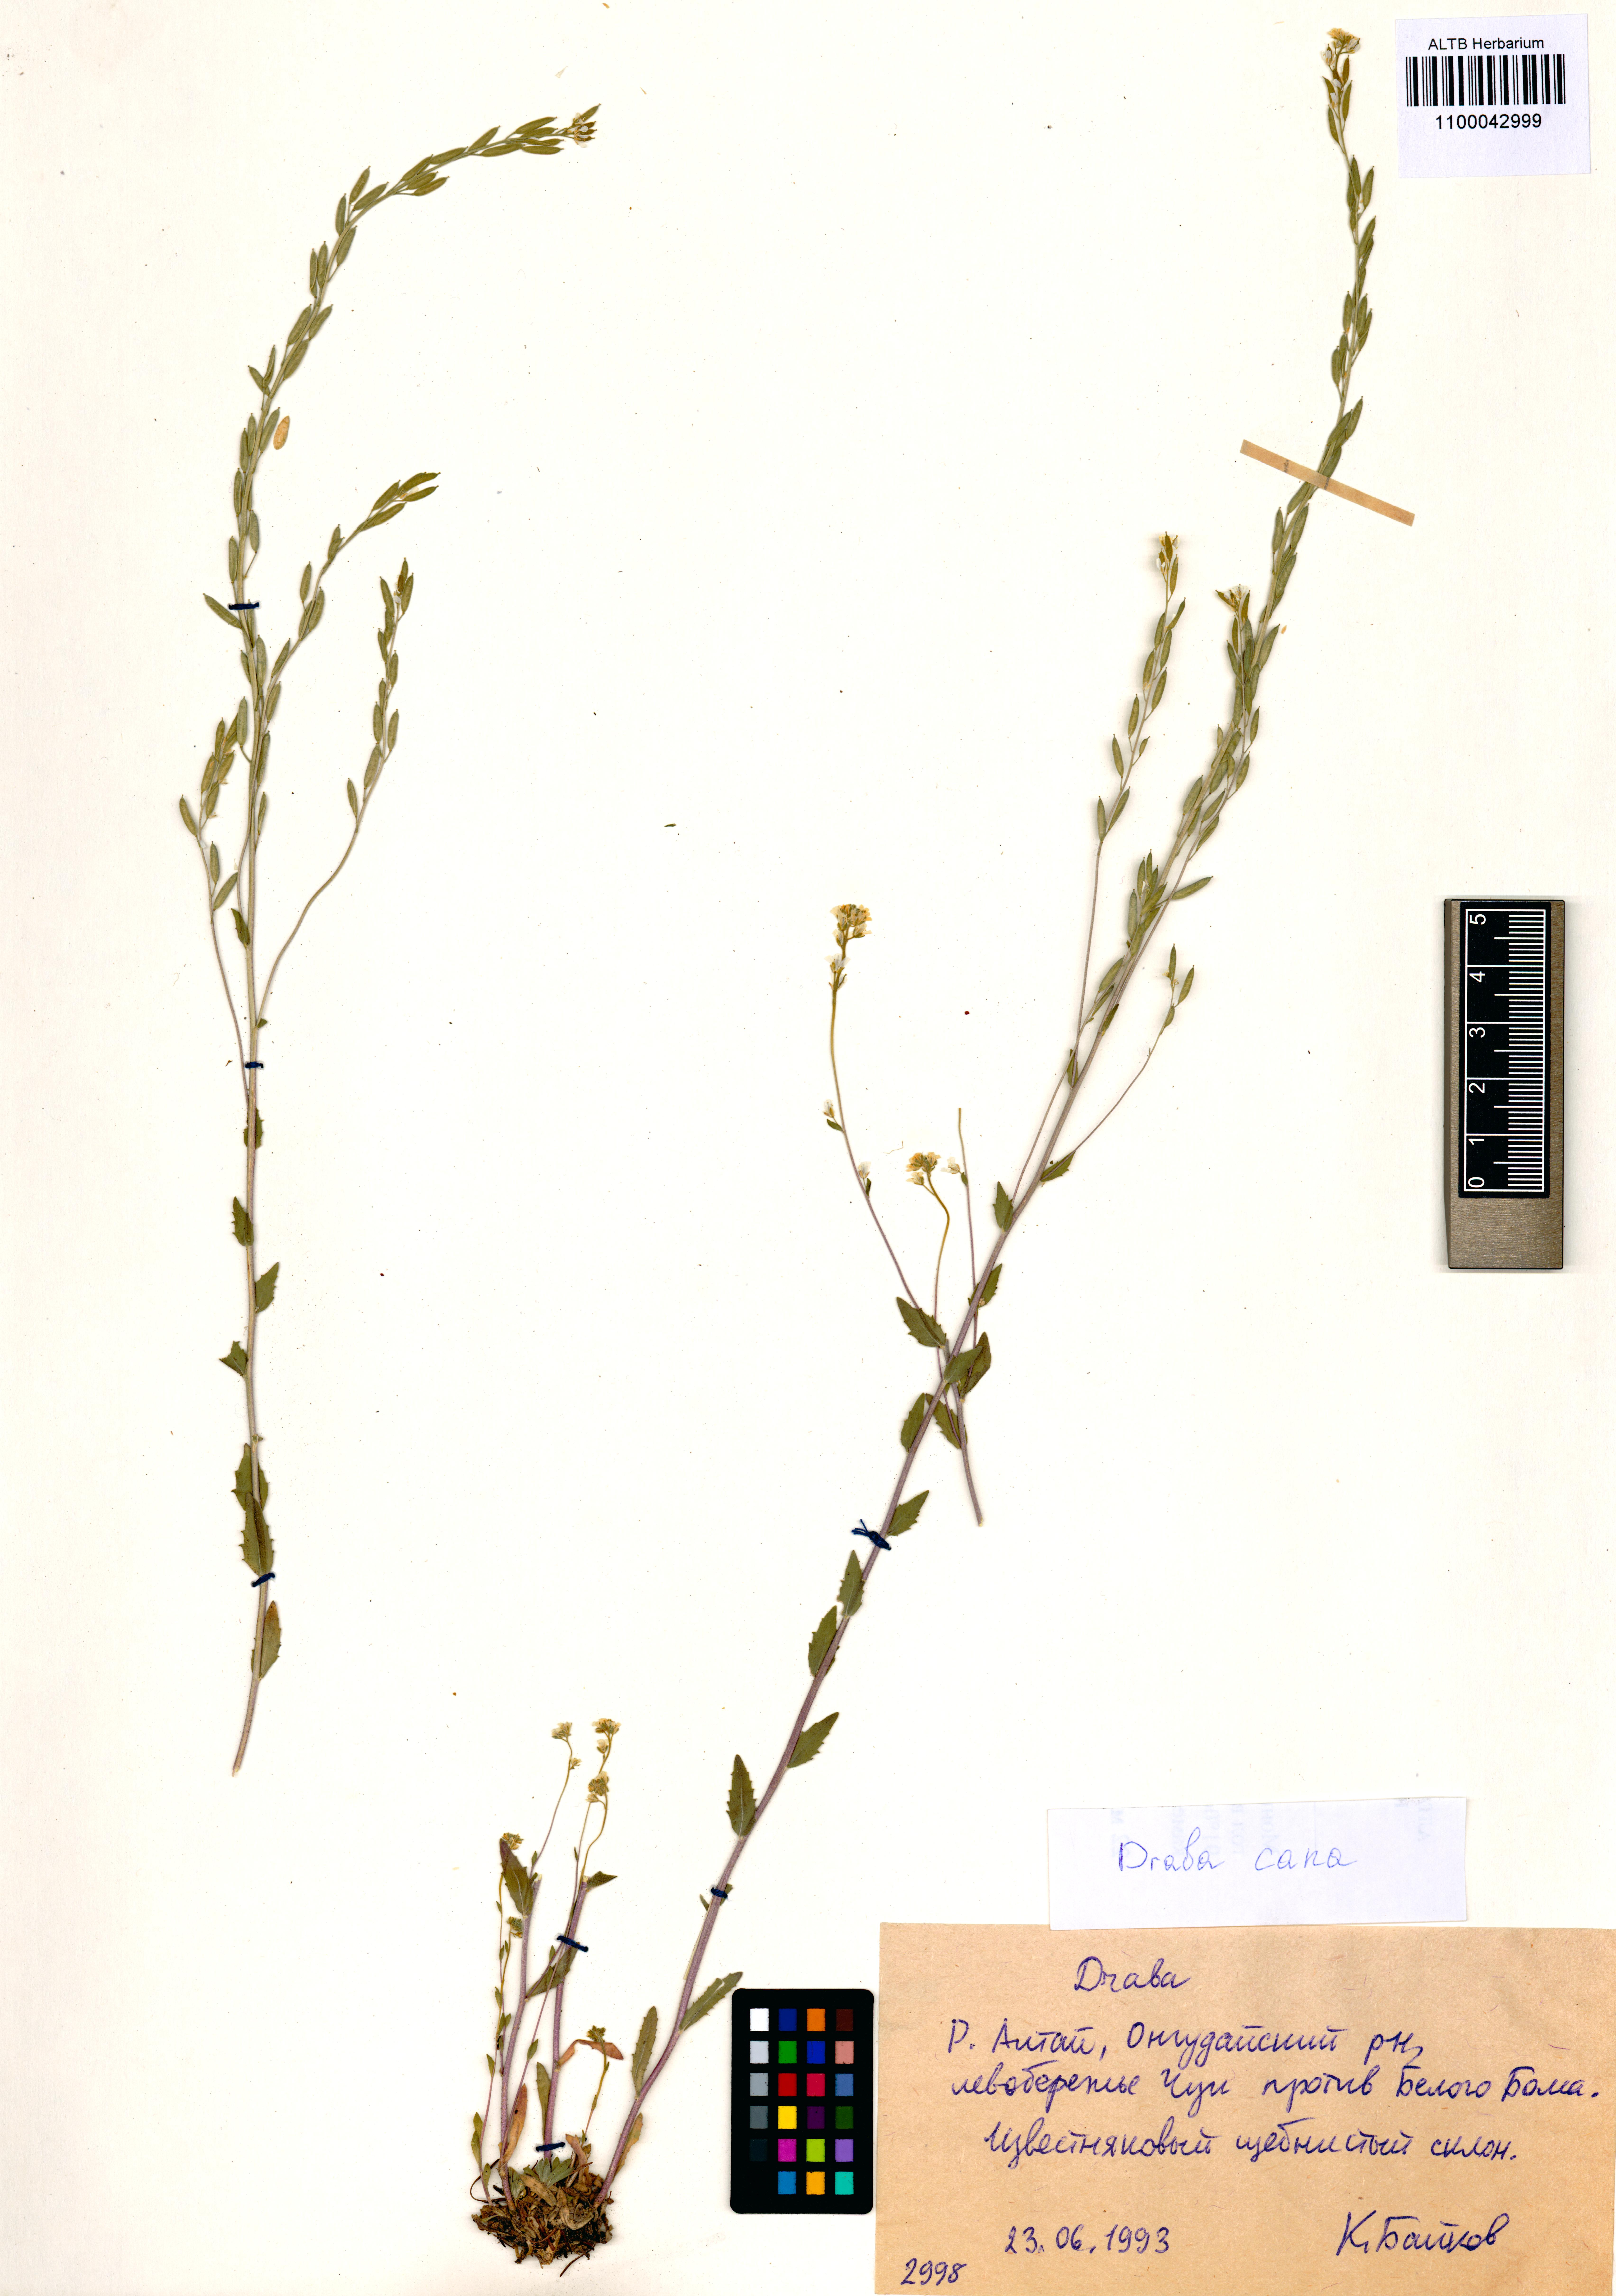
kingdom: Plantae
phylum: Tracheophyta
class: Magnoliopsida
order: Brassicales
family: Brassicaceae
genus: Draba
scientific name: Draba cana
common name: Hoary draba
